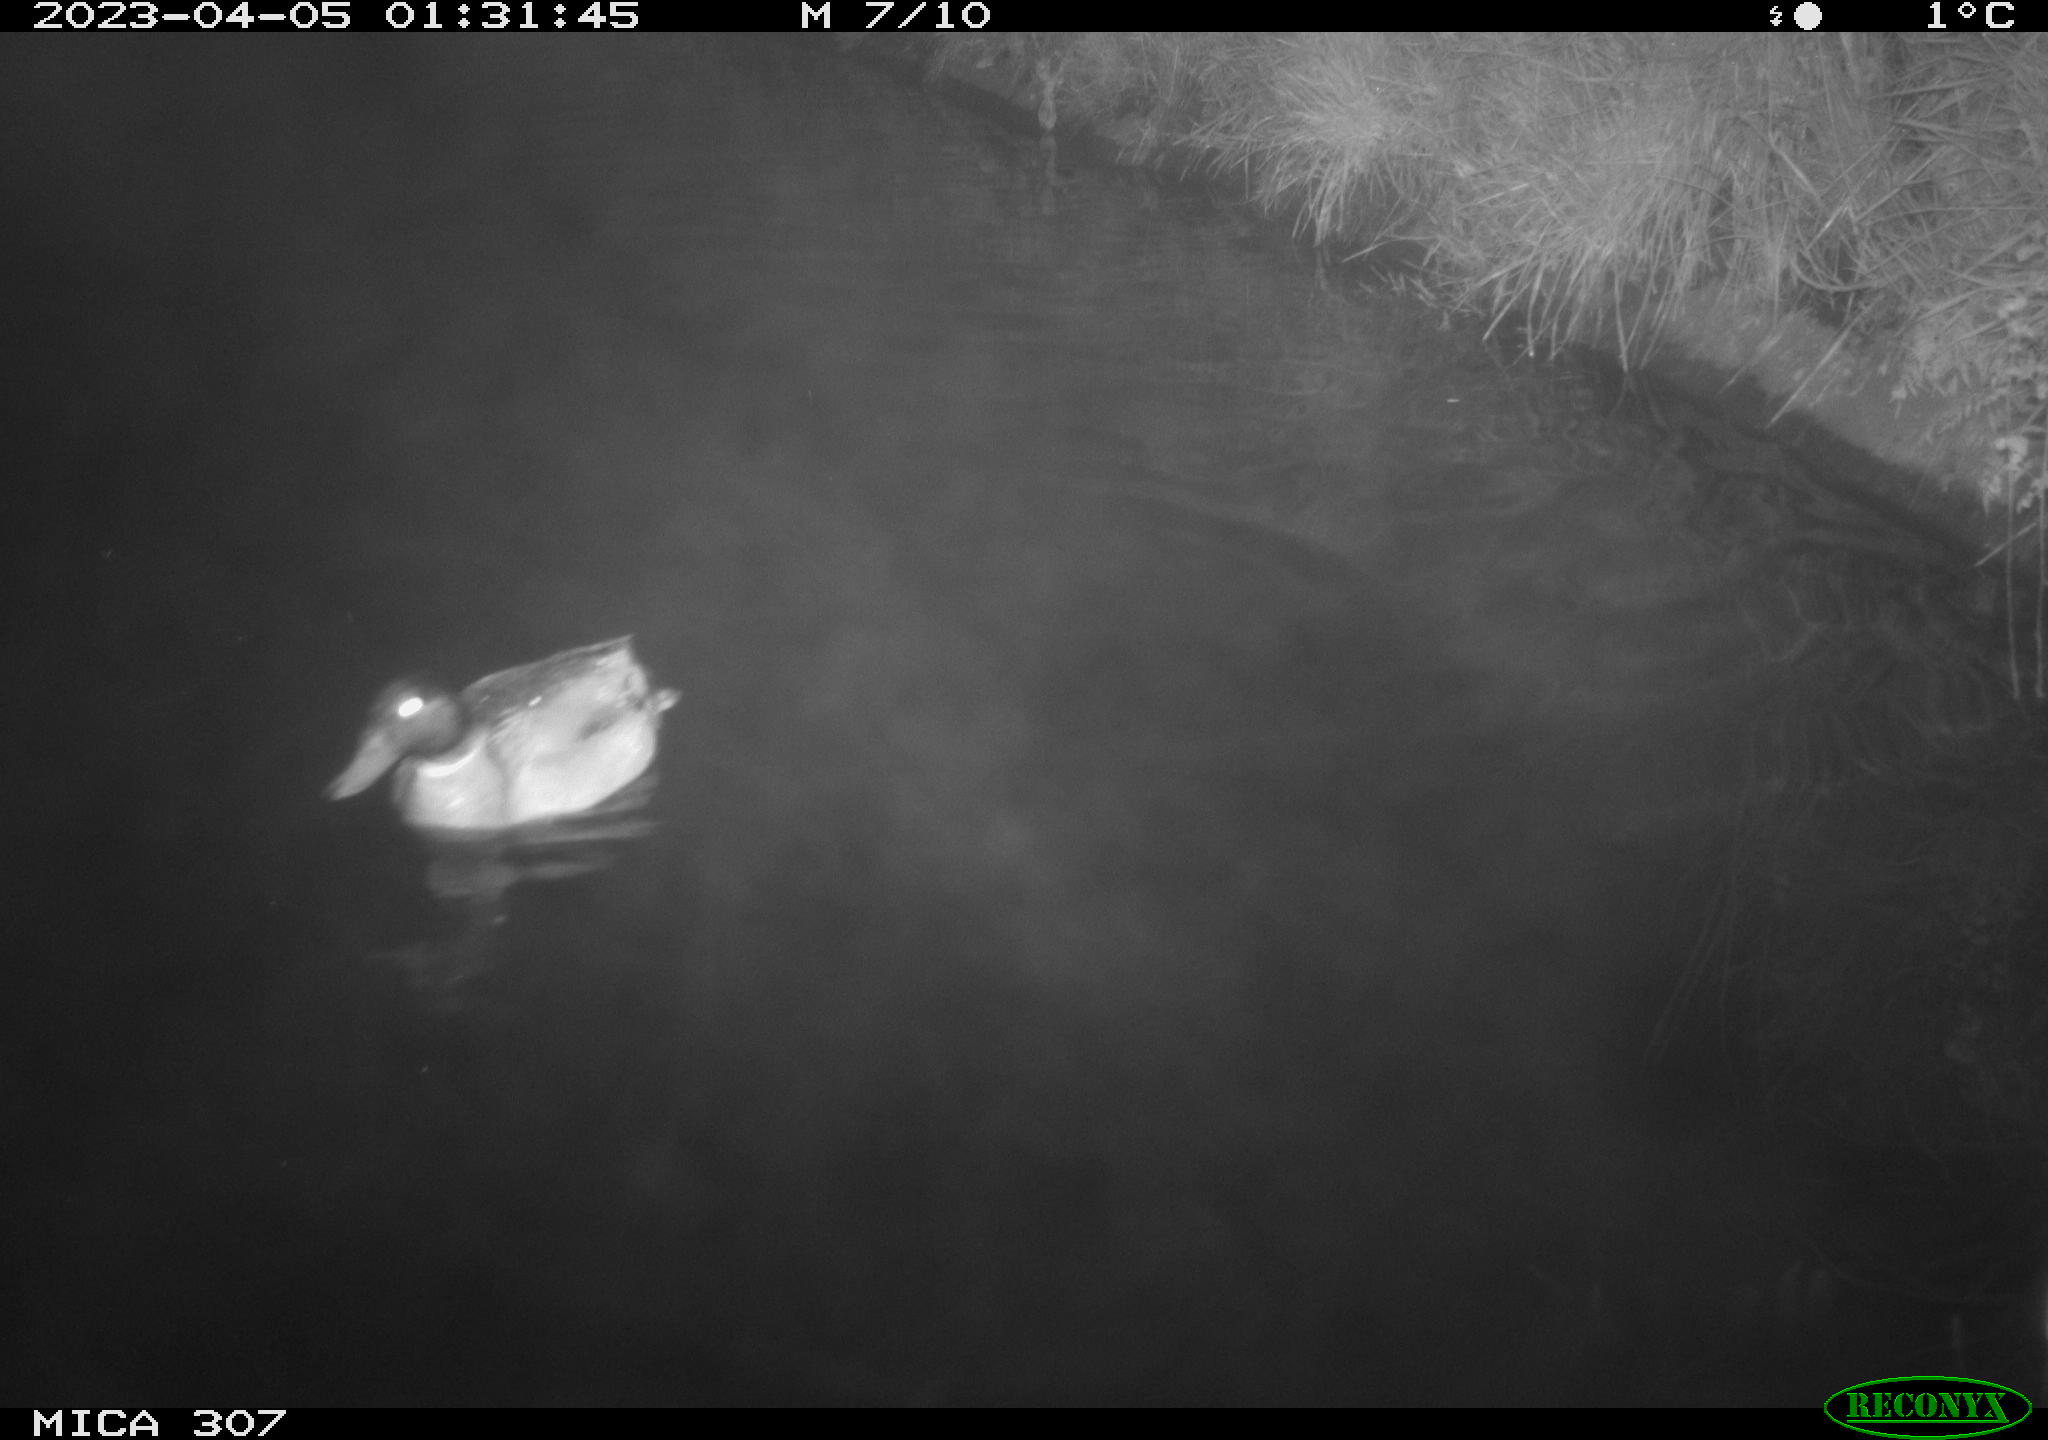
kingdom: Animalia
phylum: Chordata
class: Aves
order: Anseriformes
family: Anatidae
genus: Anas
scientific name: Anas
